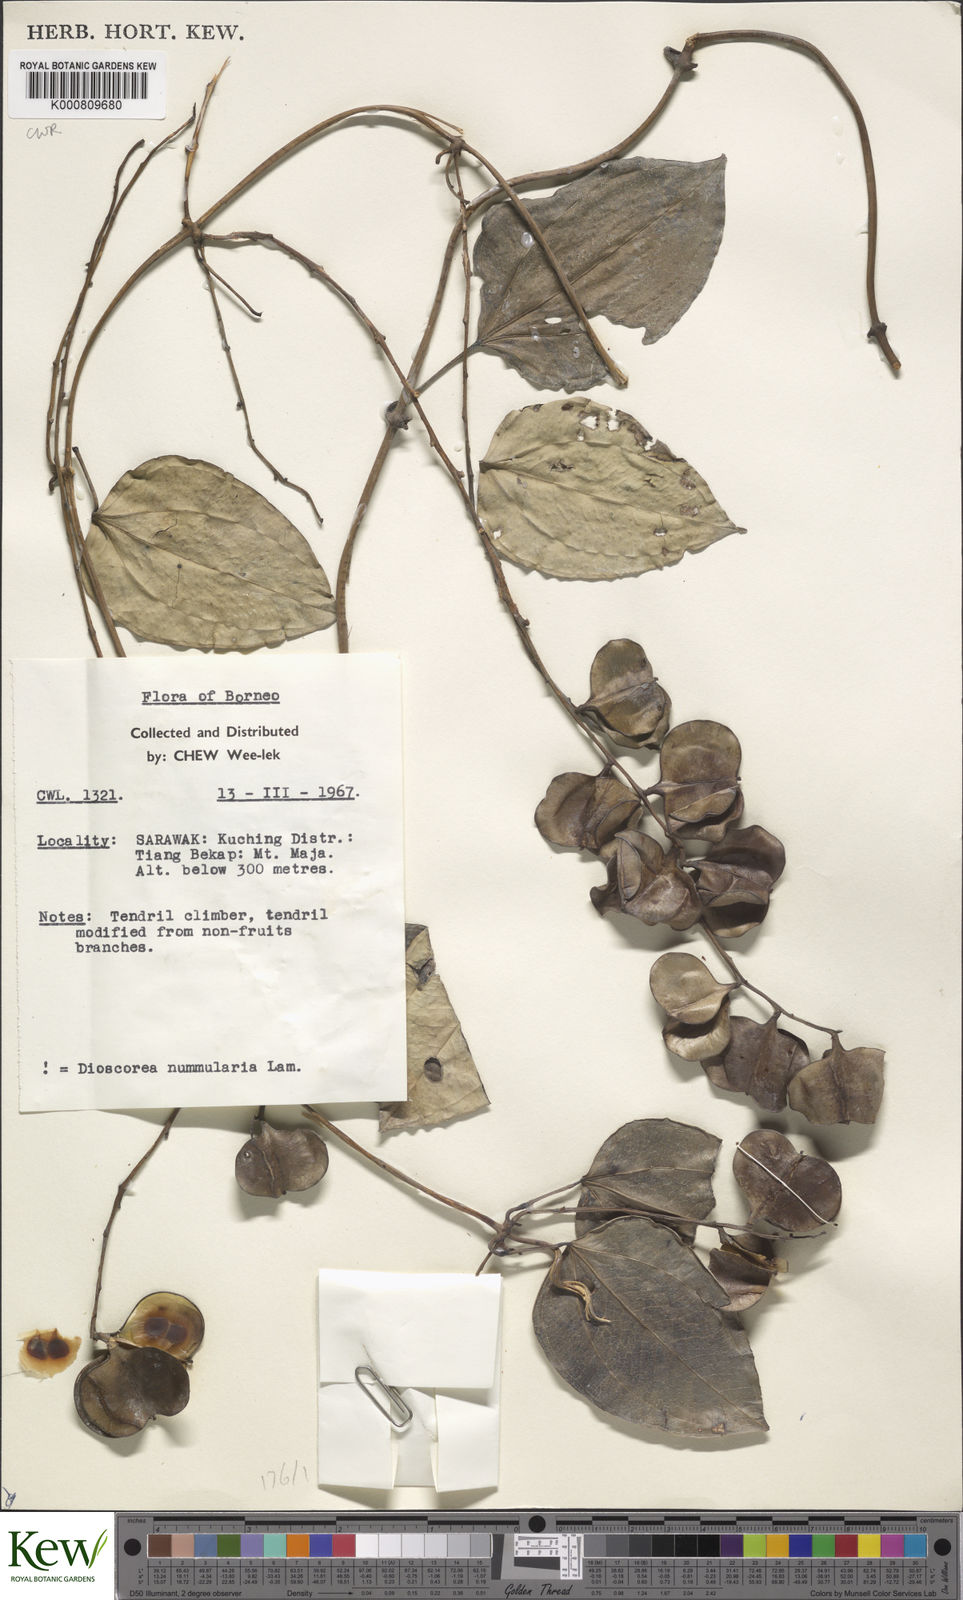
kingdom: Plantae
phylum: Tracheophyta
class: Liliopsida
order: Dioscoreales
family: Dioscoreaceae
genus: Dioscorea
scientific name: Dioscorea nummularia
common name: Pacific yam
